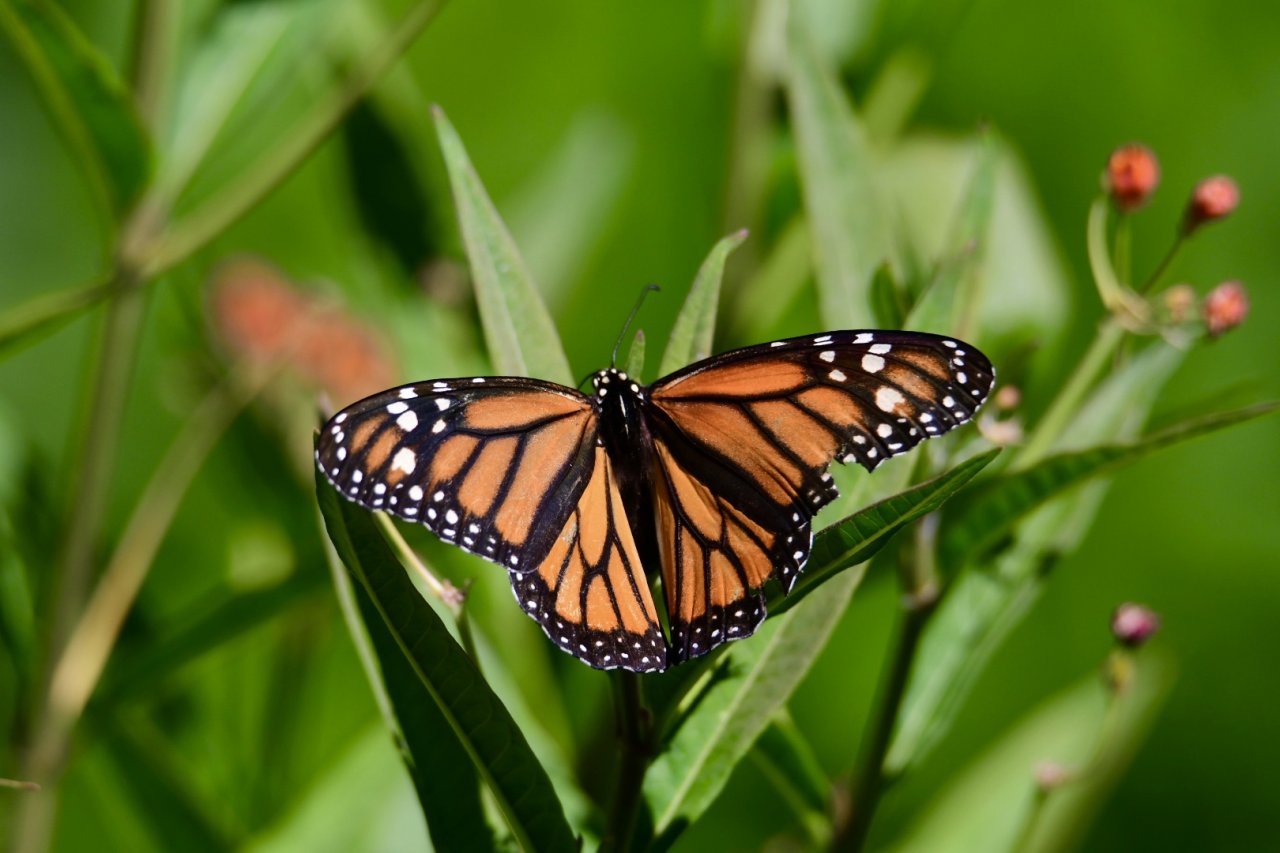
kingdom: Animalia
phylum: Arthropoda
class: Insecta
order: Lepidoptera
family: Nymphalidae
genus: Danaus
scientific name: Danaus plexippus
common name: Monarch
